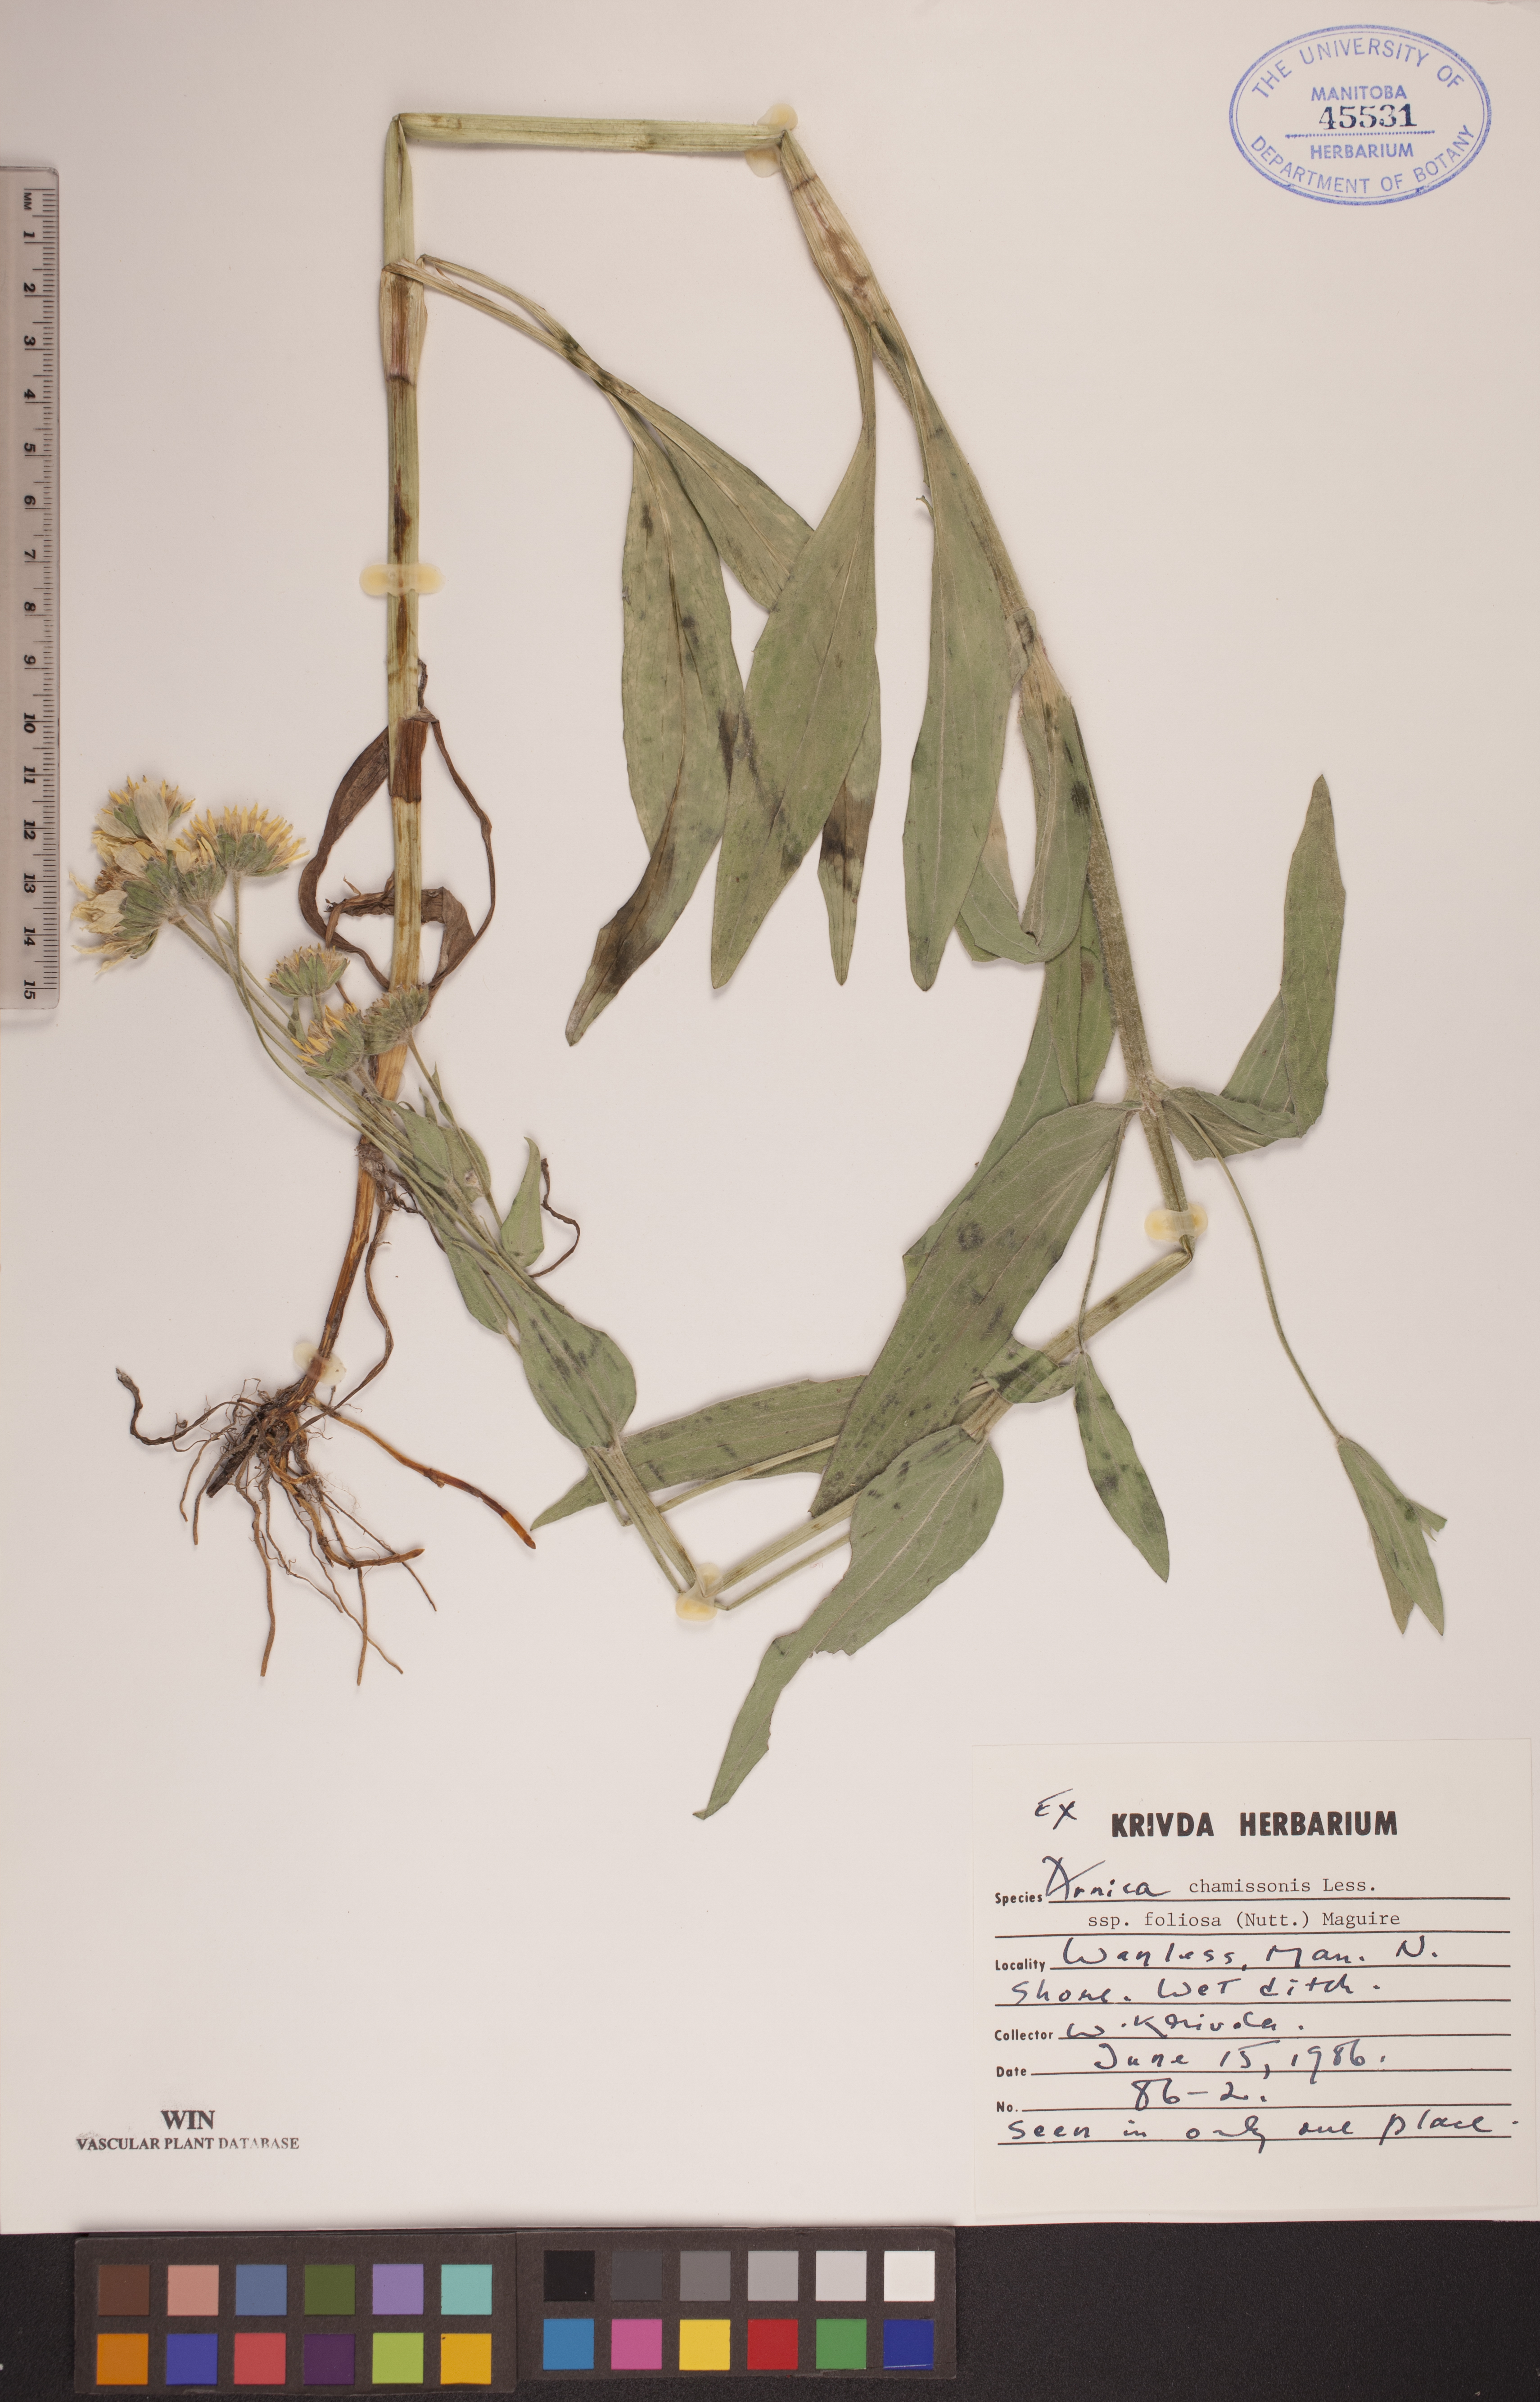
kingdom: Plantae
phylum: Tracheophyta
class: Magnoliopsida
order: Asterales
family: Asteraceae
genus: Arnica
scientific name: Arnica chamissonis
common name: Leafy arnica
